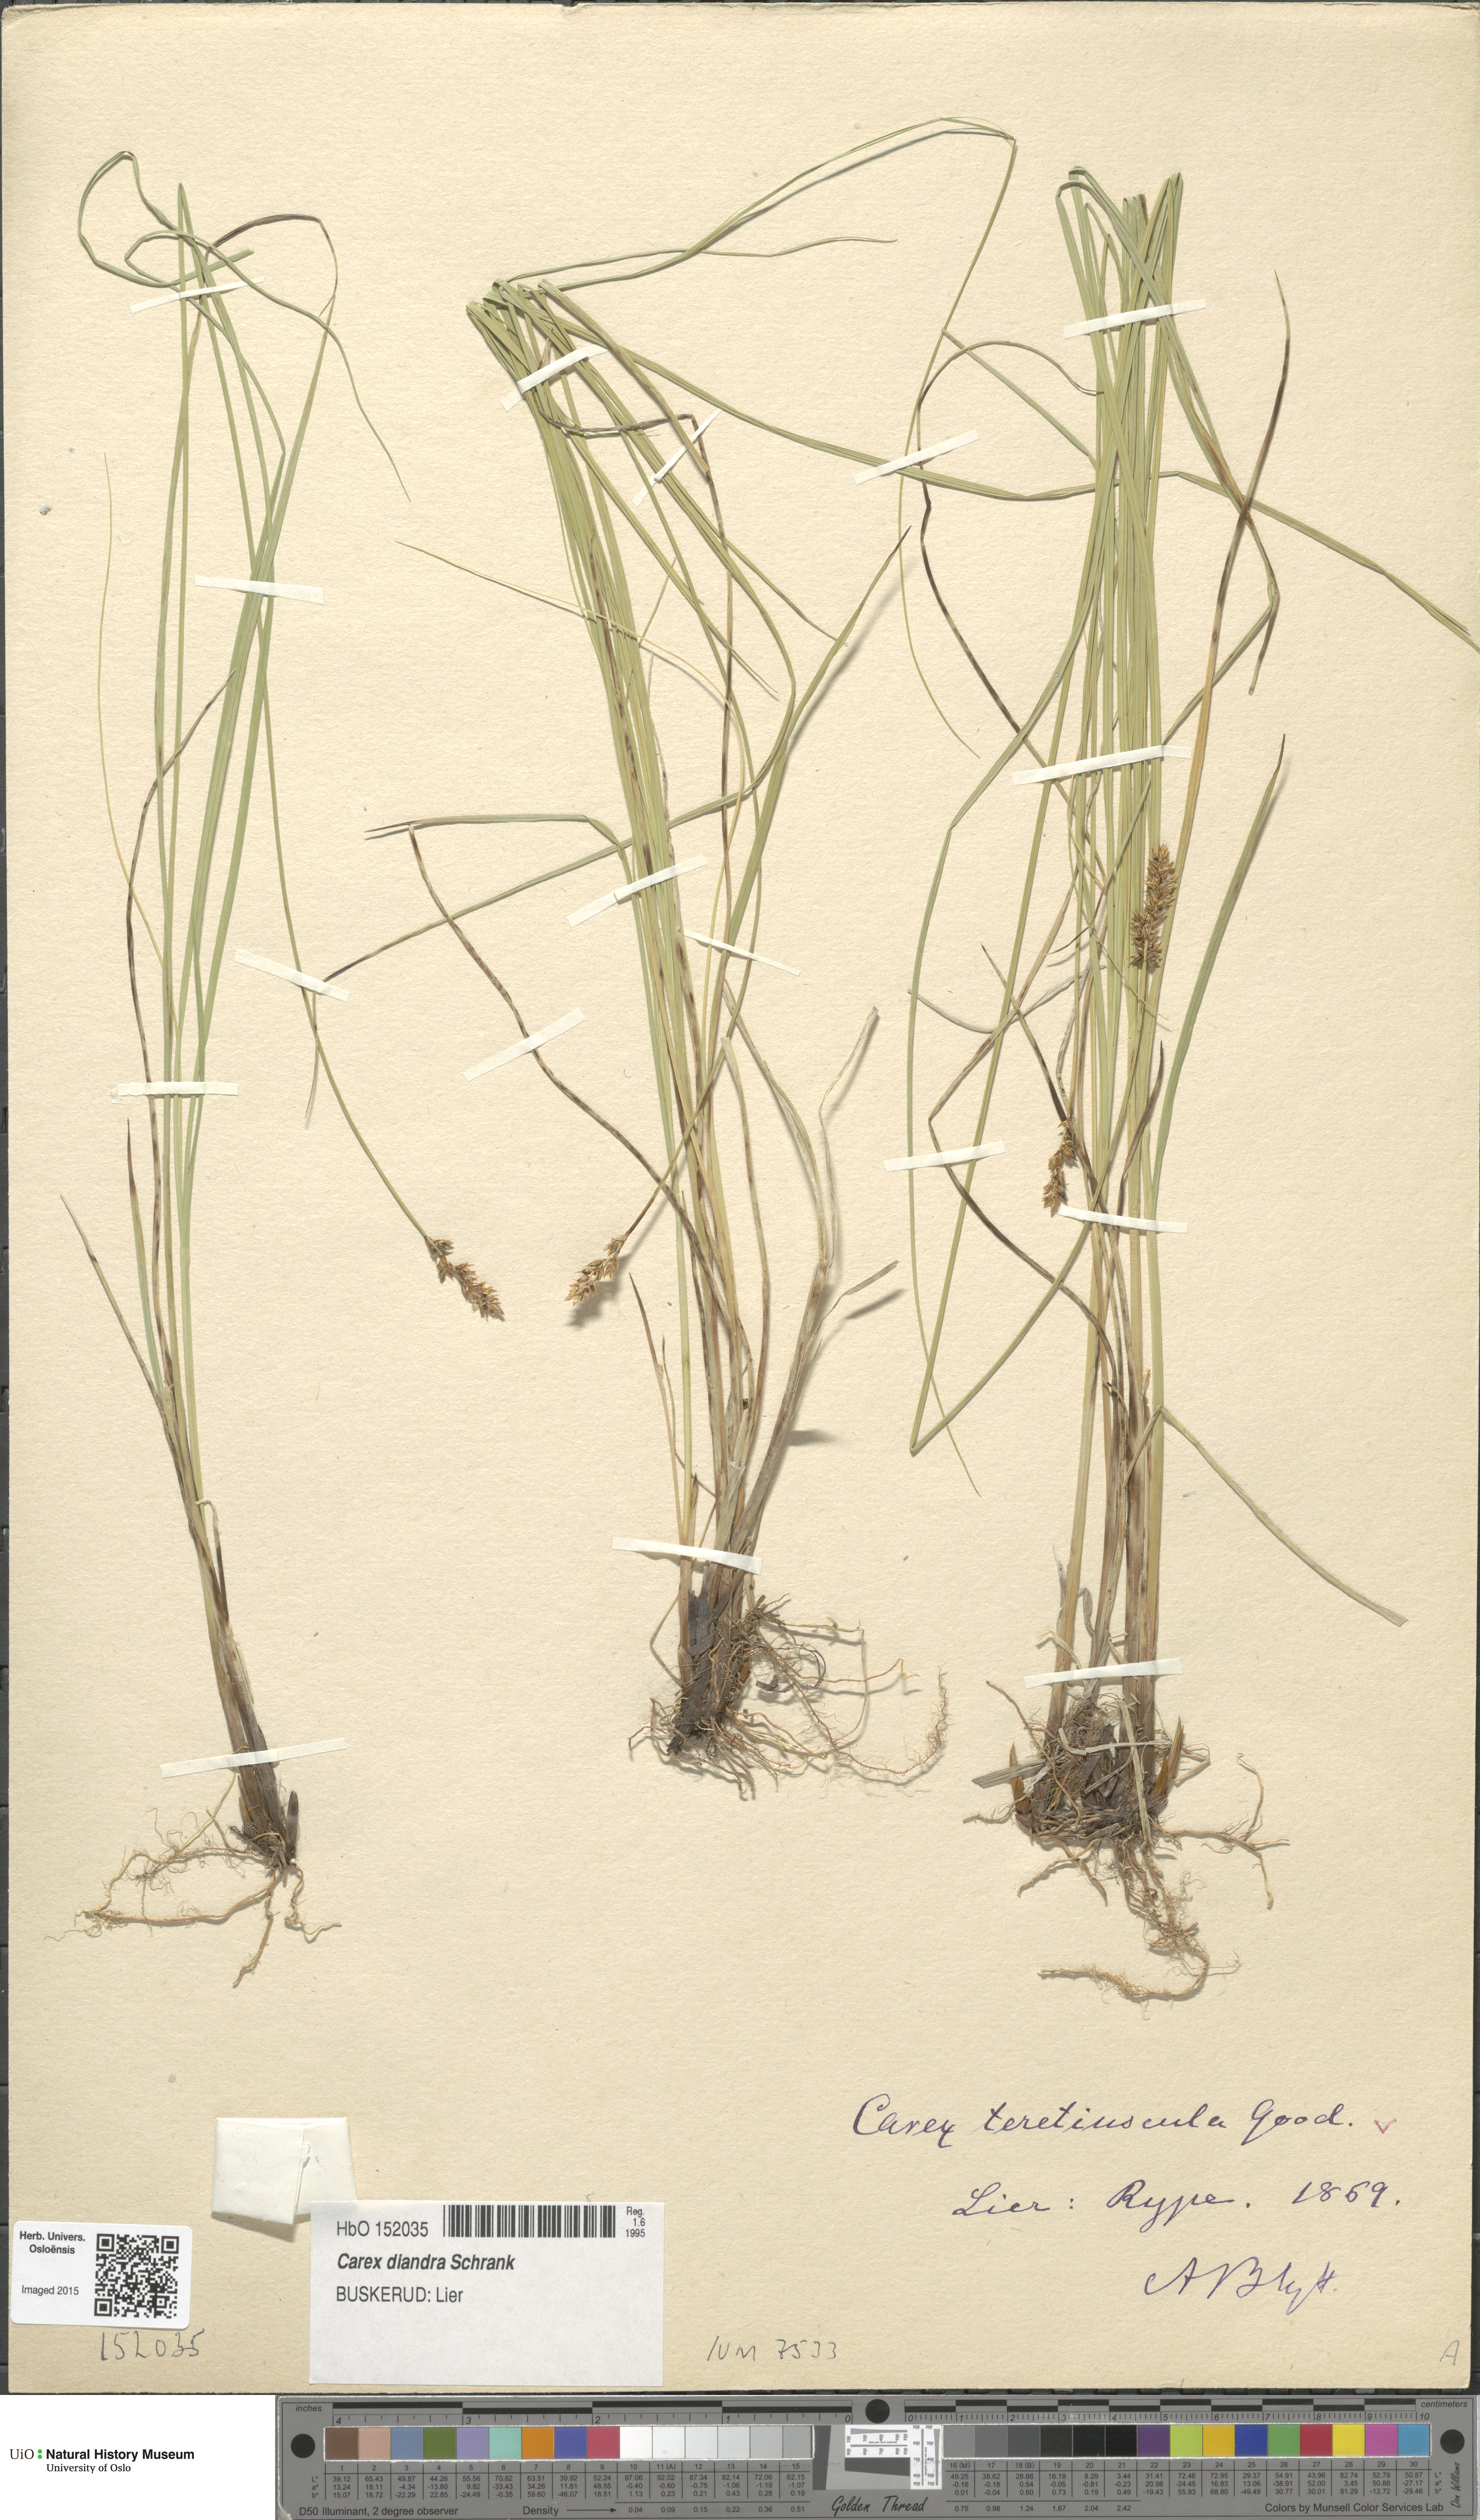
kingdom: Plantae
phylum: Tracheophyta
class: Liliopsida
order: Poales
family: Cyperaceae
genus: Carex
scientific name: Carex diandra
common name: Lesser tussock-sedge
